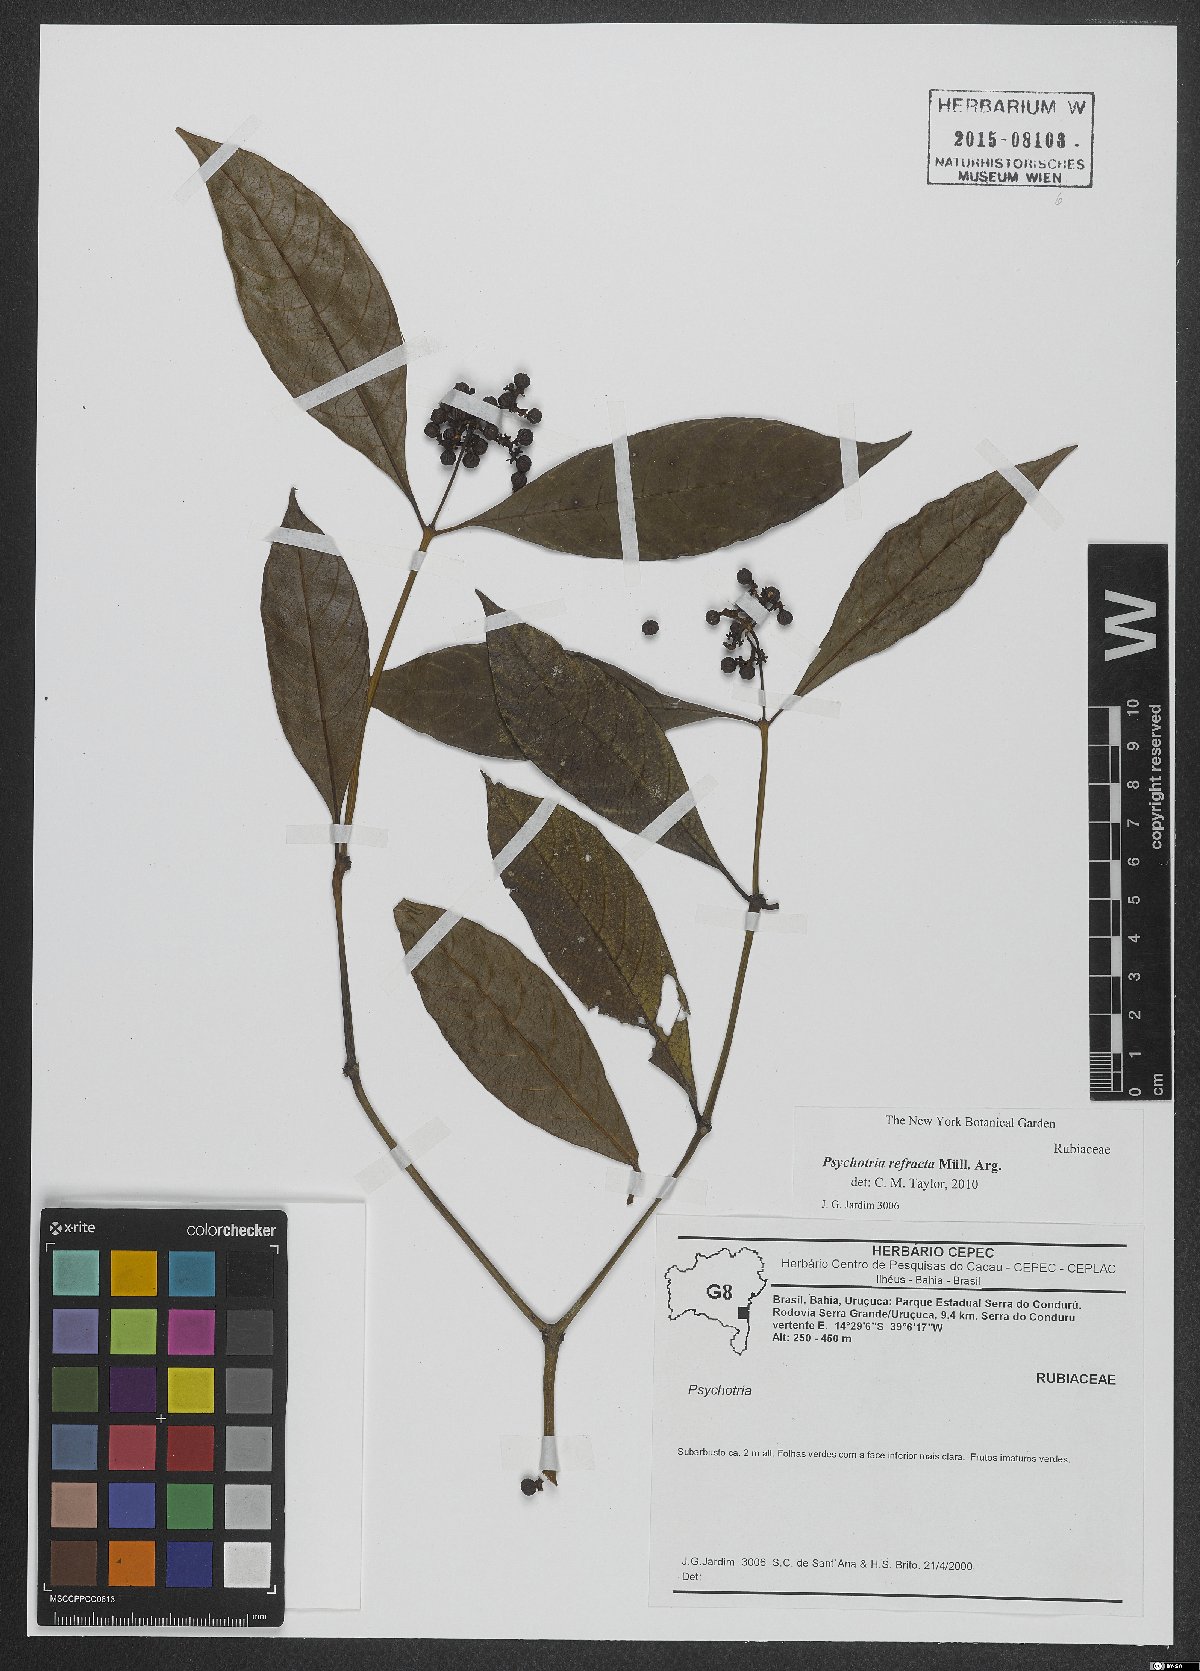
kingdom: Plantae
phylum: Tracheophyta
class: Magnoliopsida
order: Gentianales
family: Rubiaceae
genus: Psychotria
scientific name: Psychotria refracta
